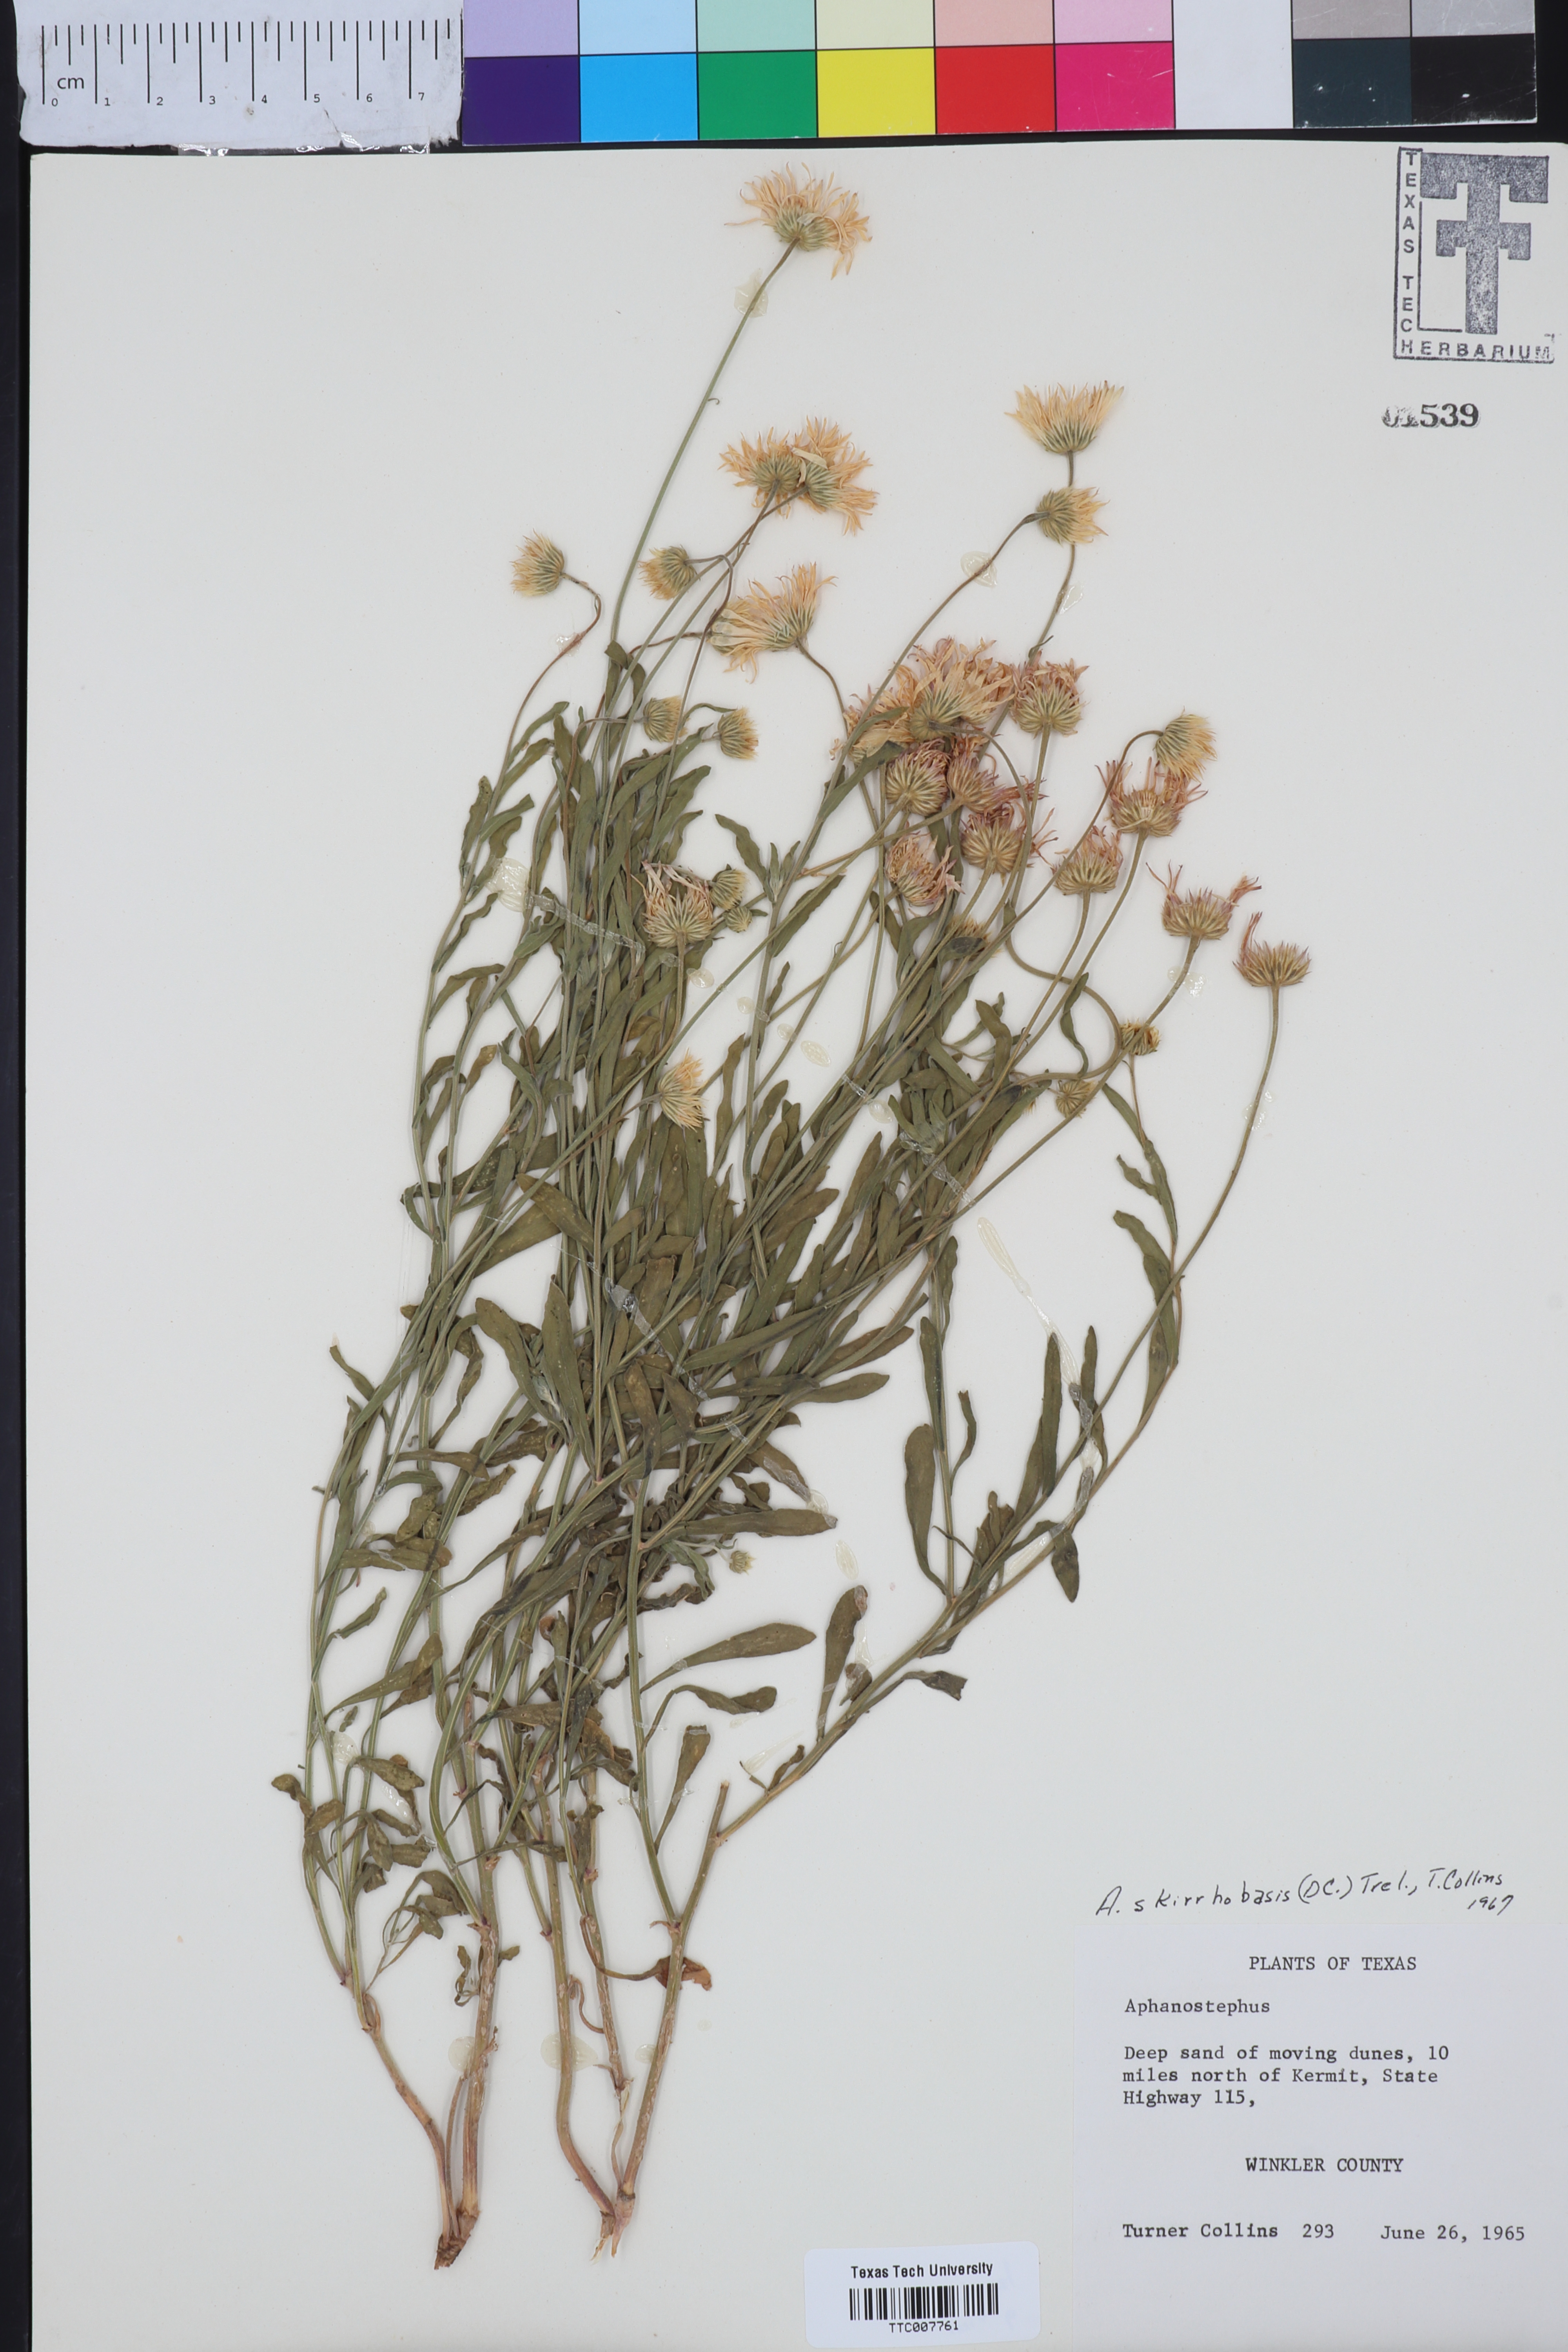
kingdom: Plantae
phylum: Tracheophyta
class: Magnoliopsida
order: Asterales
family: Asteraceae
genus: Aphanostephus
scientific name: Aphanostephus skirrhobasis
